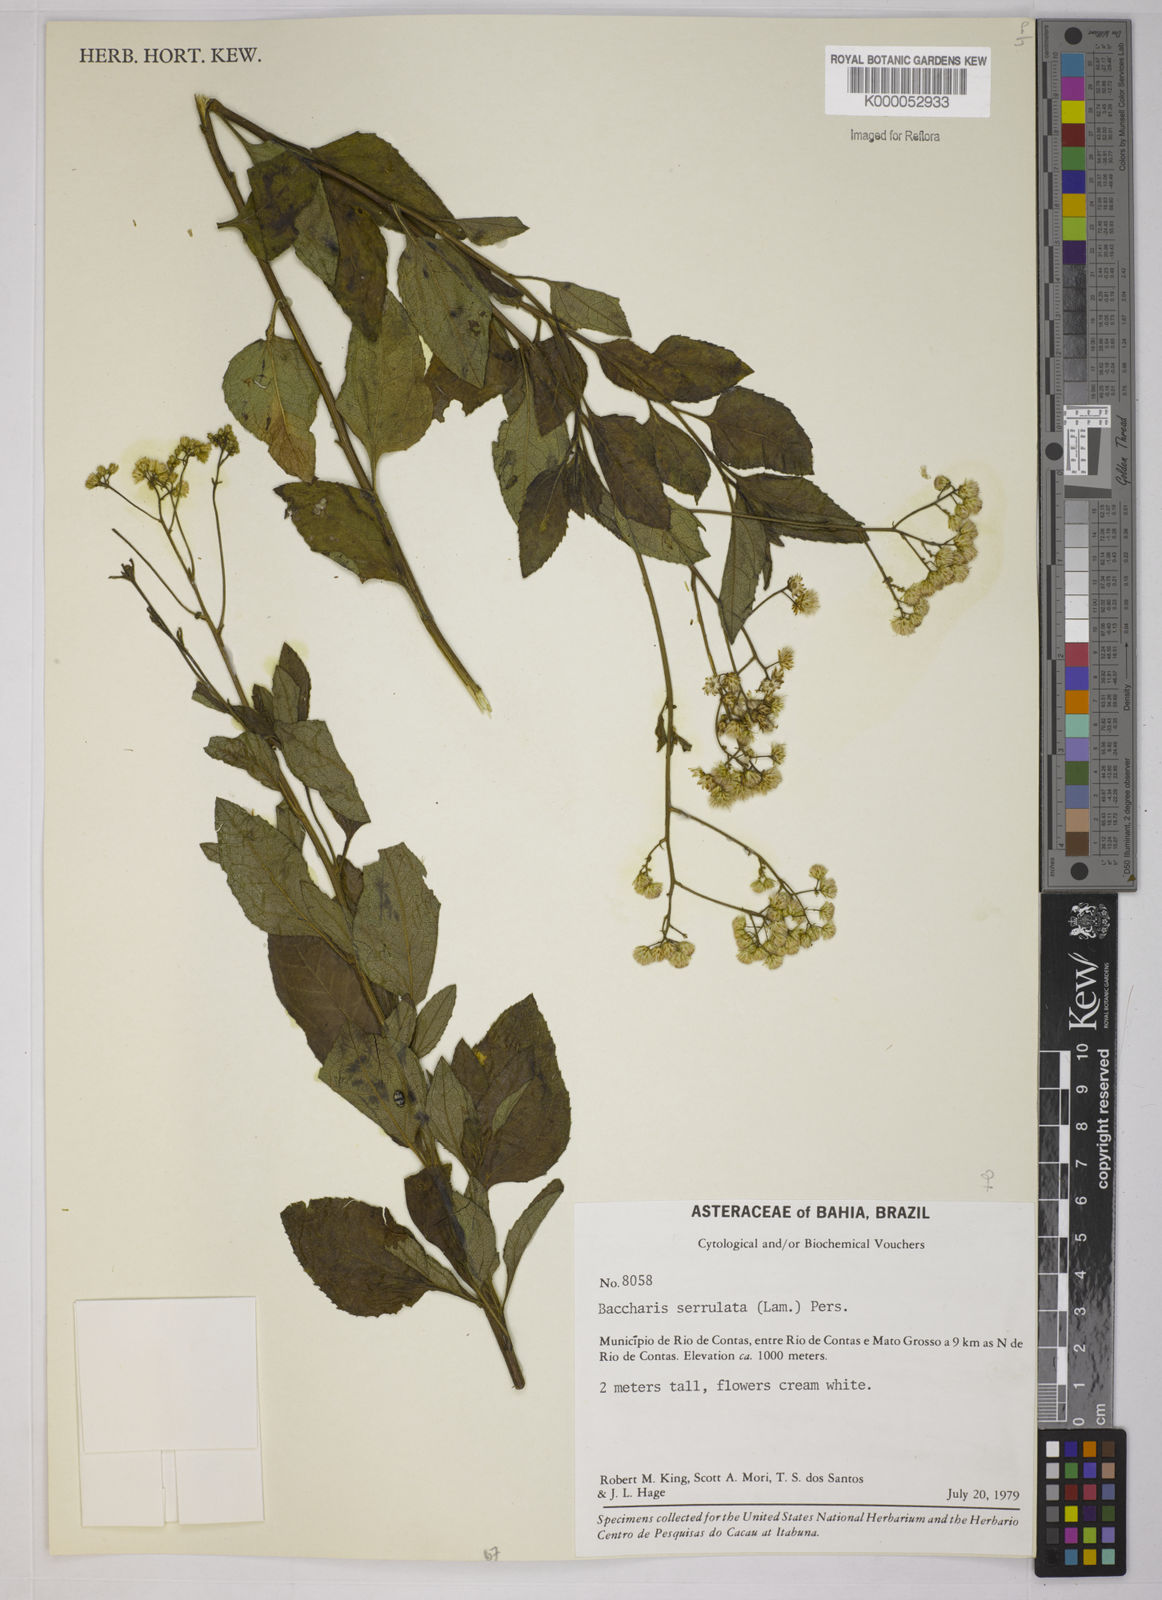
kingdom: Plantae
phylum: Tracheophyta
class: Magnoliopsida
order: Asterales
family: Asteraceae
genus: Baccharis
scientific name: Baccharis serrulata
